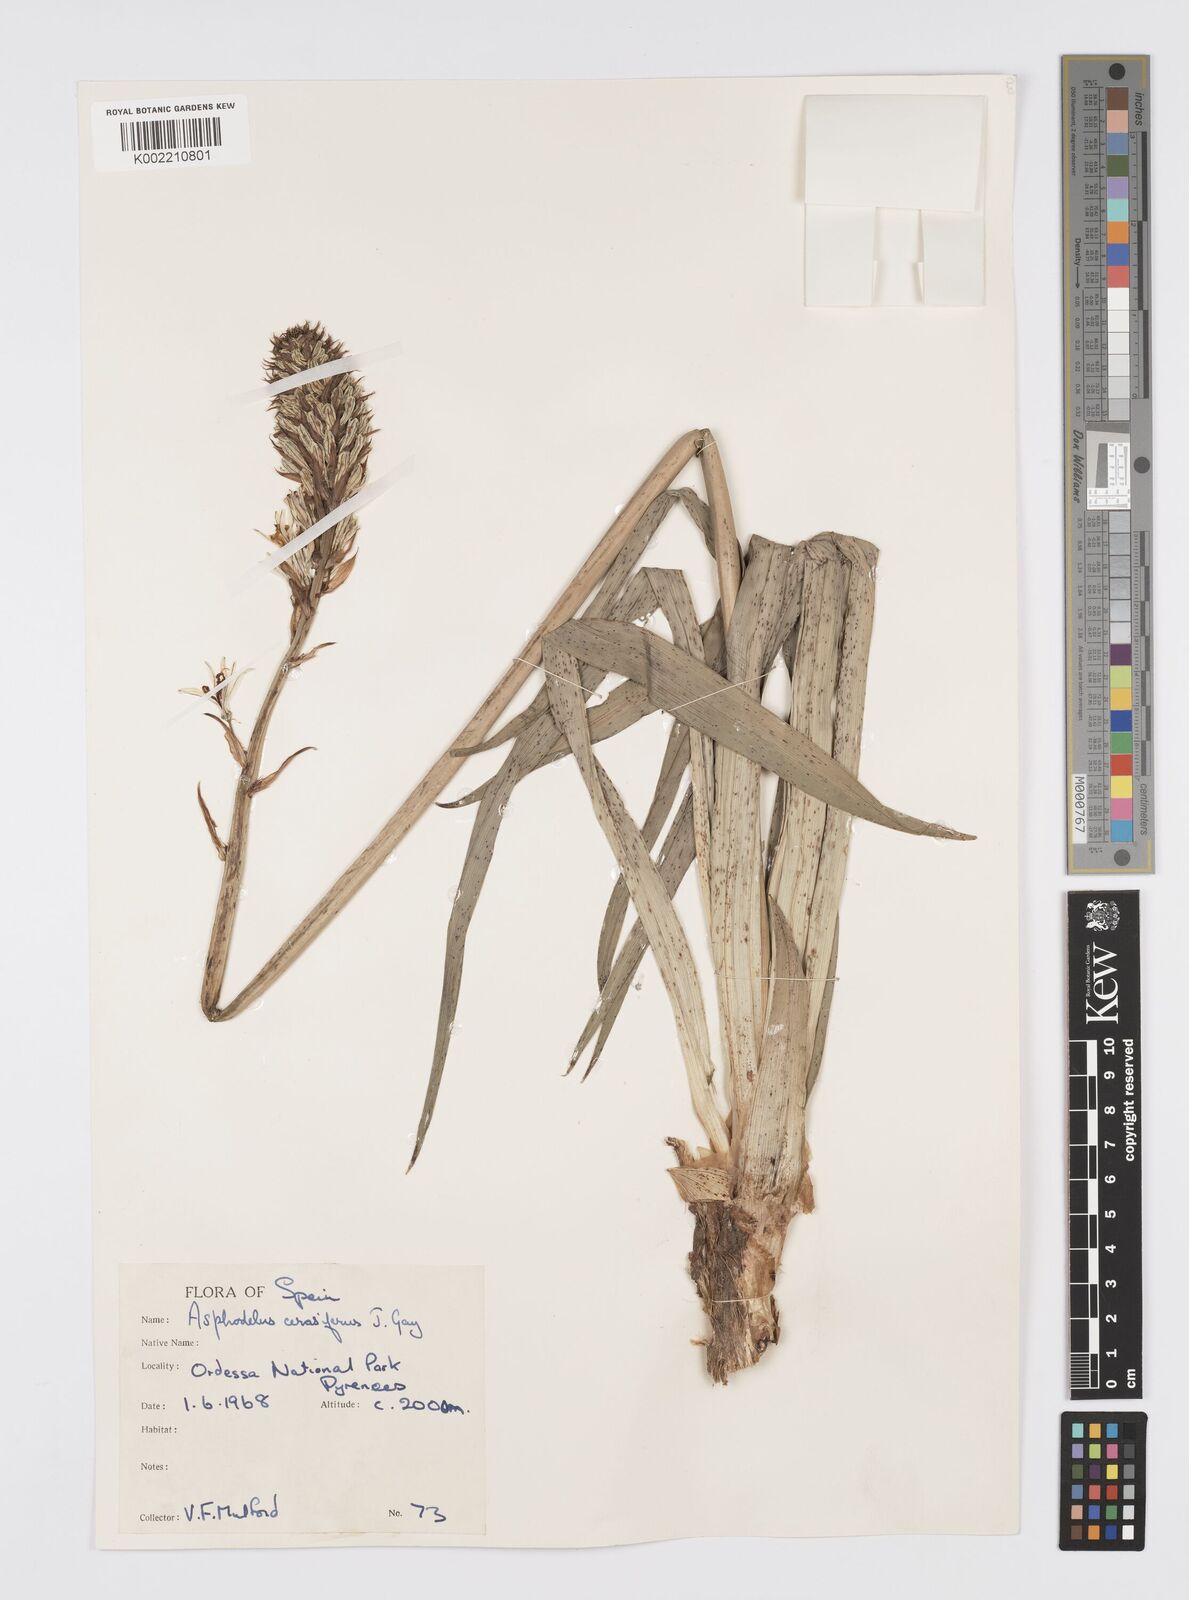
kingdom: Plantae
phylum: Tracheophyta
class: Liliopsida
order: Asparagales
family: Asphodelaceae
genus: Asphodelus
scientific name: Asphodelus cerasifer
